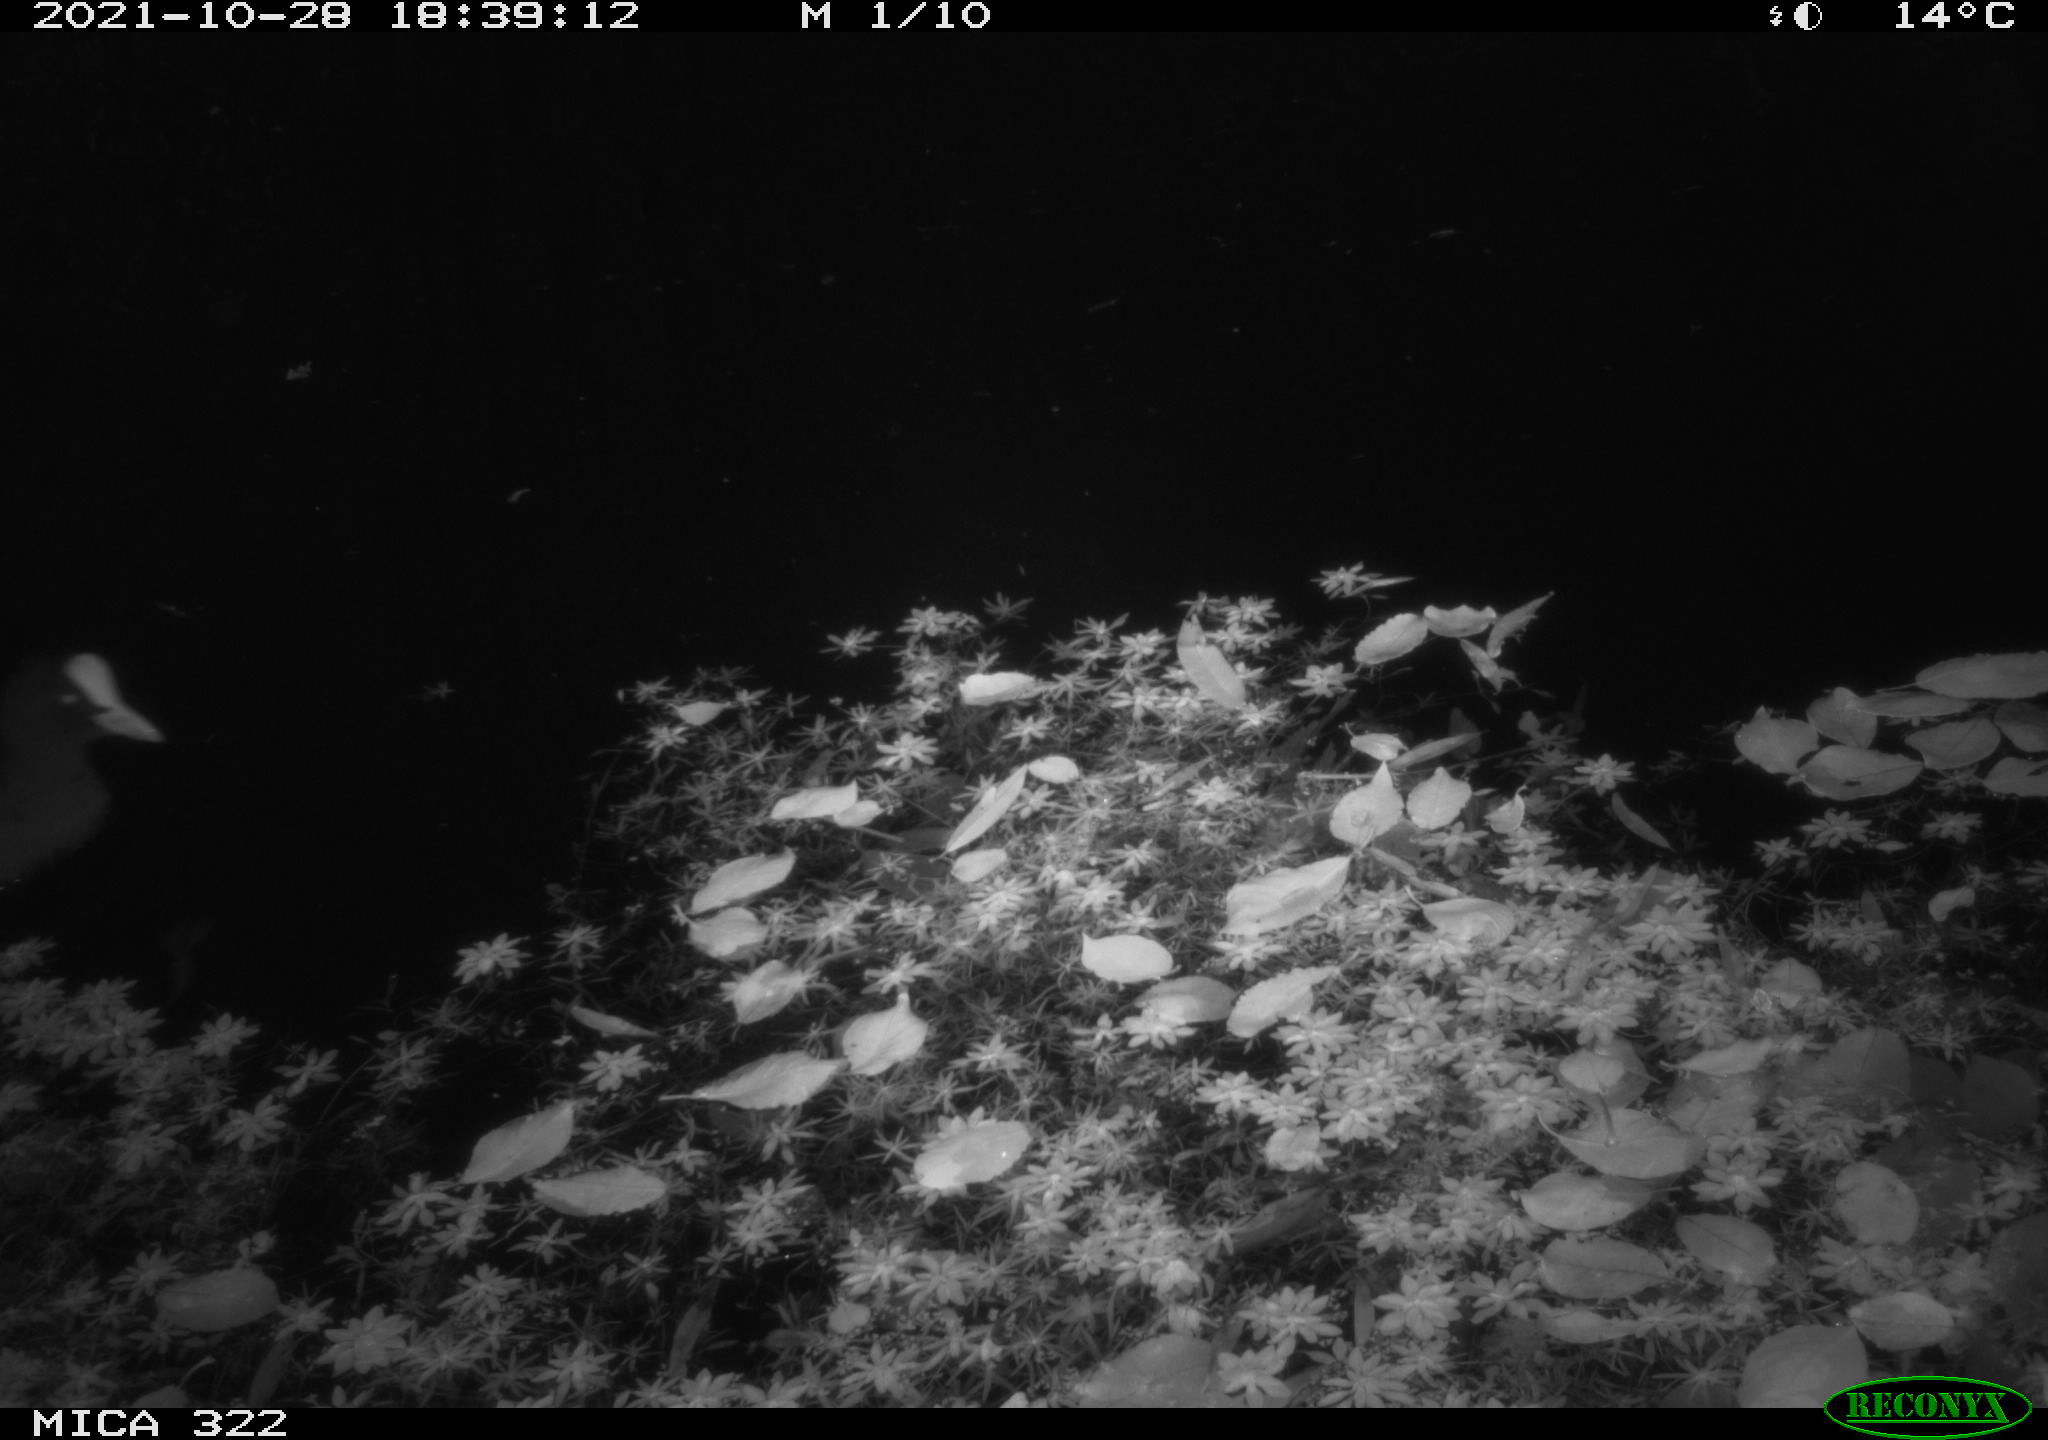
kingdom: Animalia
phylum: Chordata
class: Aves
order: Gruiformes
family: Rallidae
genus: Fulica
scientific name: Fulica atra
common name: Eurasian coot
